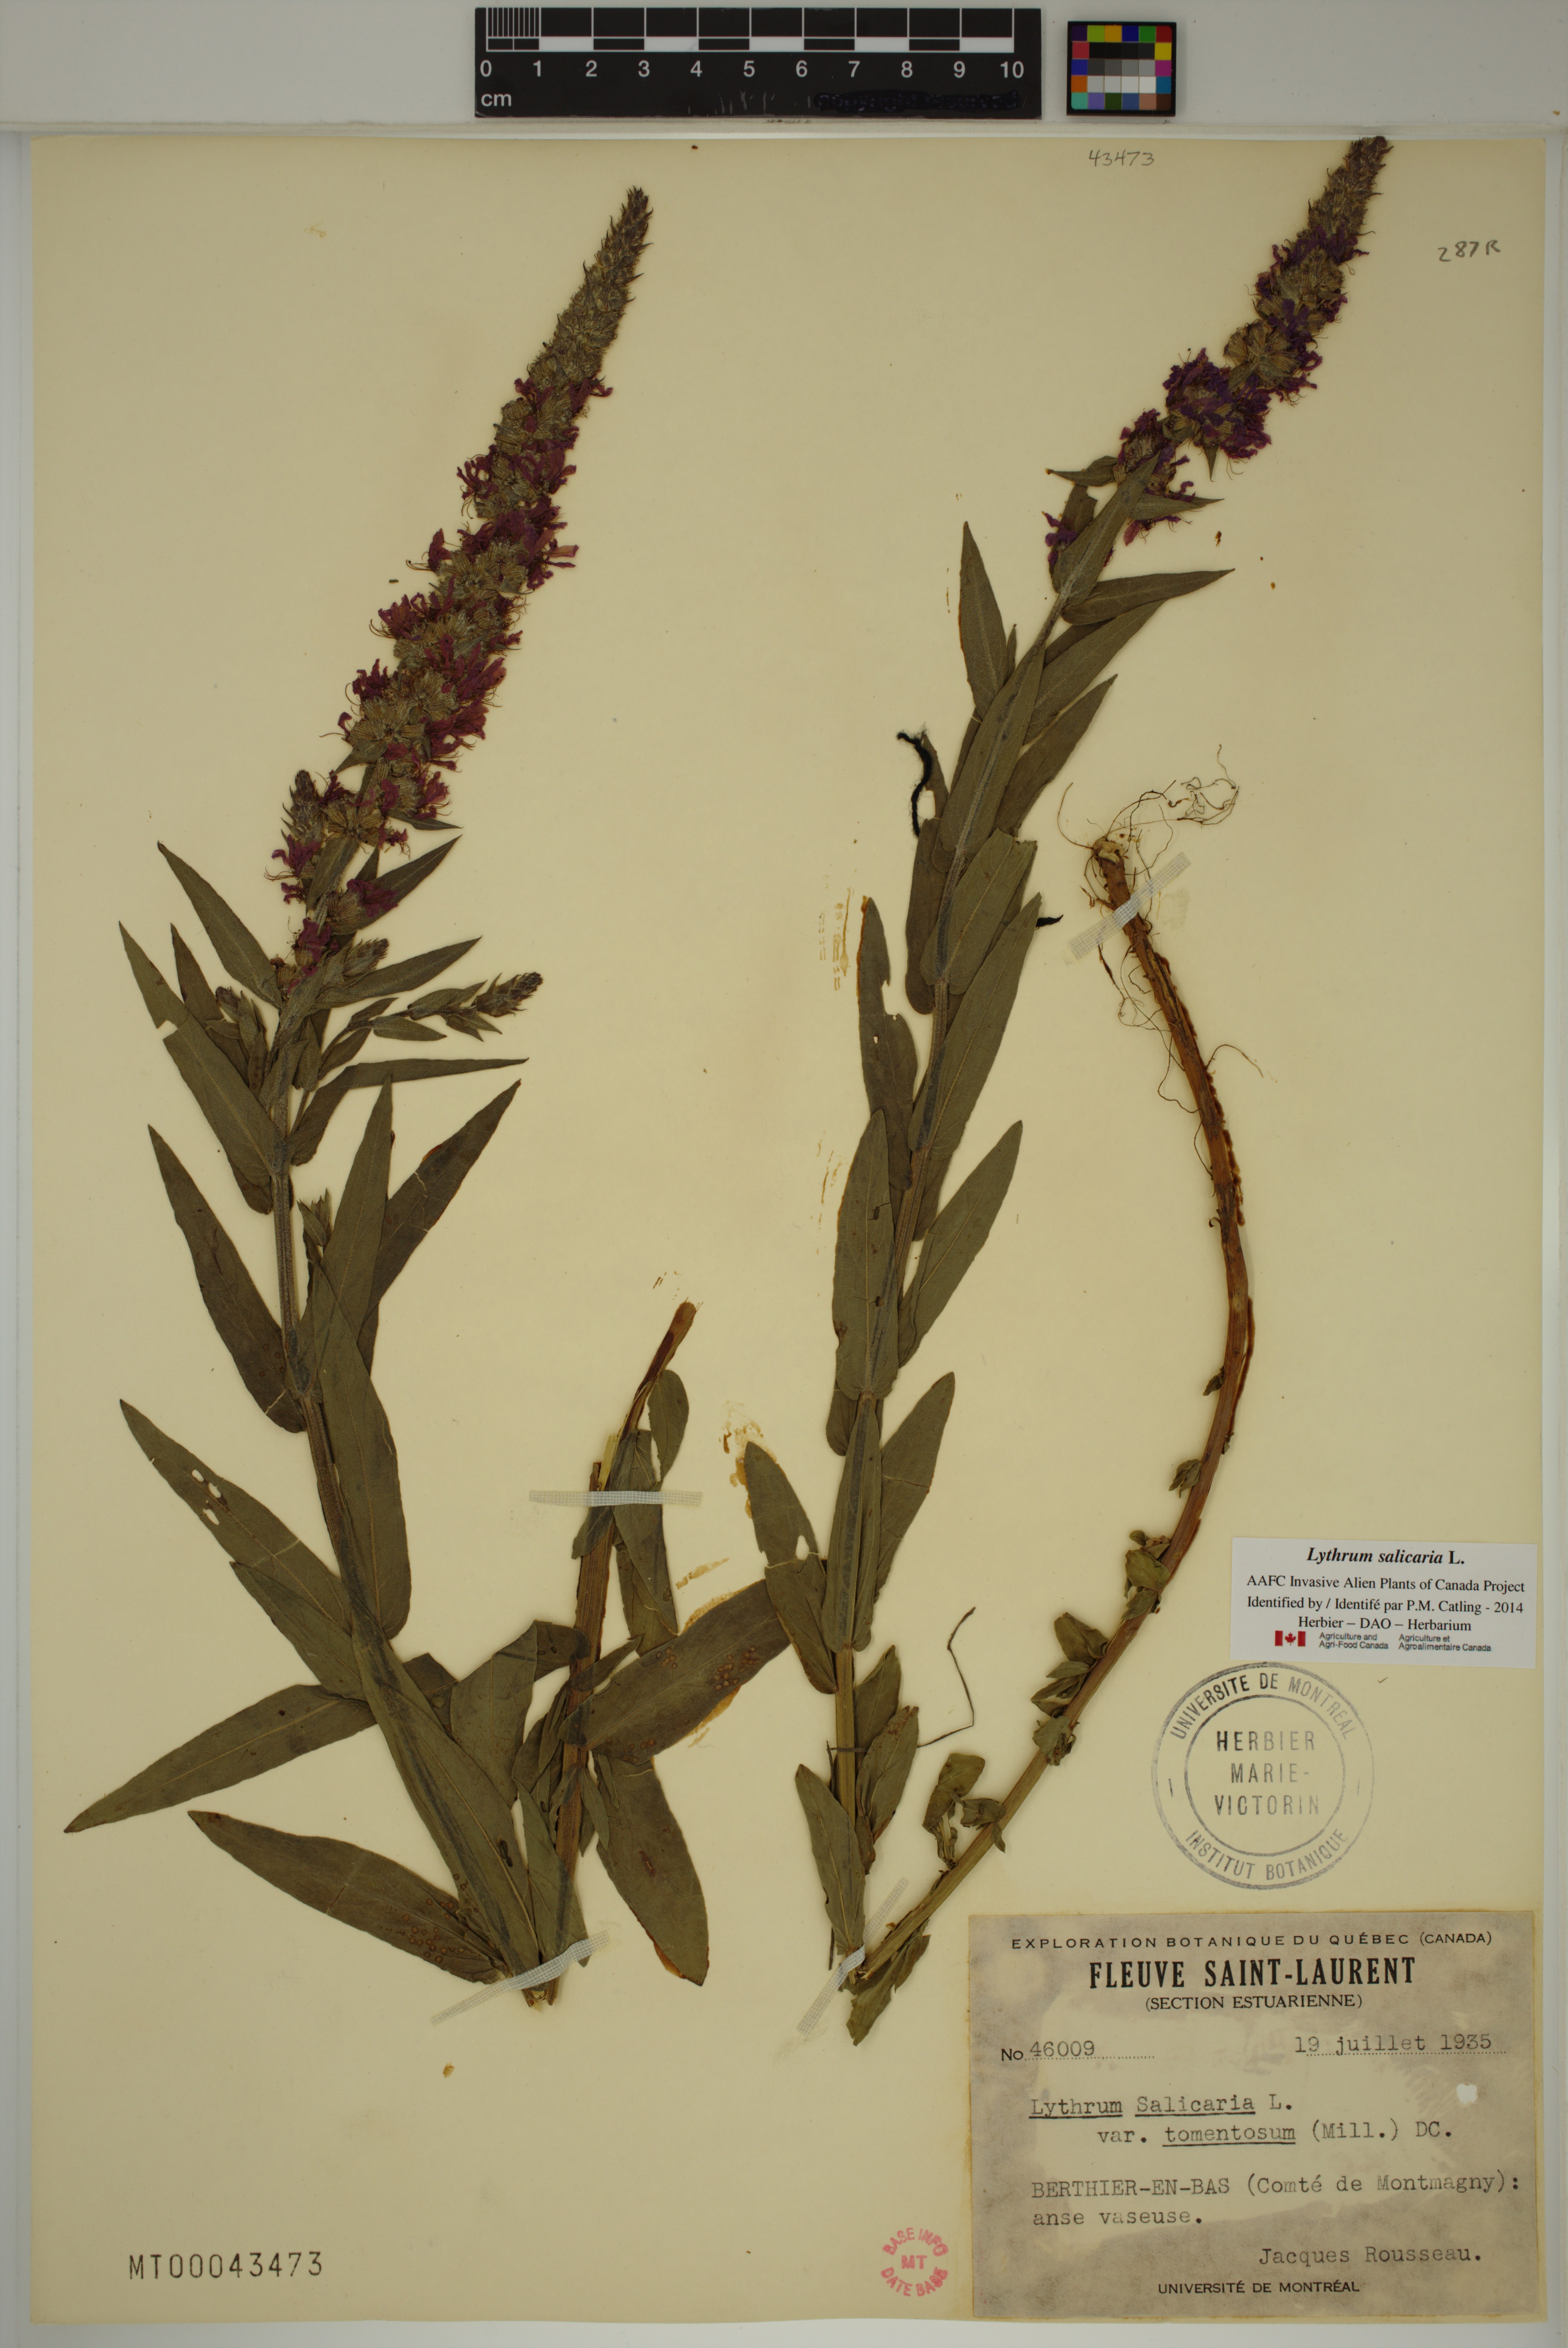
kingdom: Plantae
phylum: Tracheophyta
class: Magnoliopsida
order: Myrtales
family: Lythraceae
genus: Lythrum
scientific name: Lythrum salicaria
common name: Purple loosestrife
